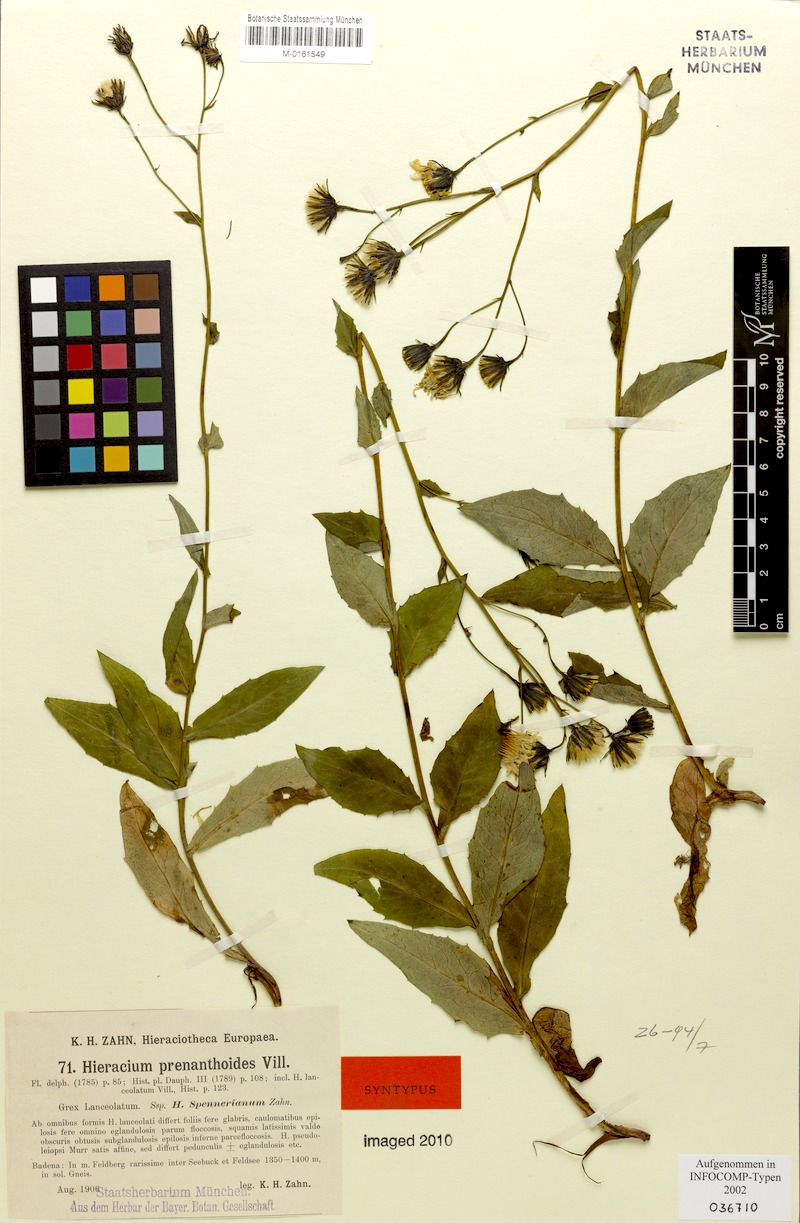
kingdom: Plantae
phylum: Tracheophyta
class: Magnoliopsida
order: Asterales
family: Asteraceae
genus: Hieracium
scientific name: Hieracium prenanthoides
